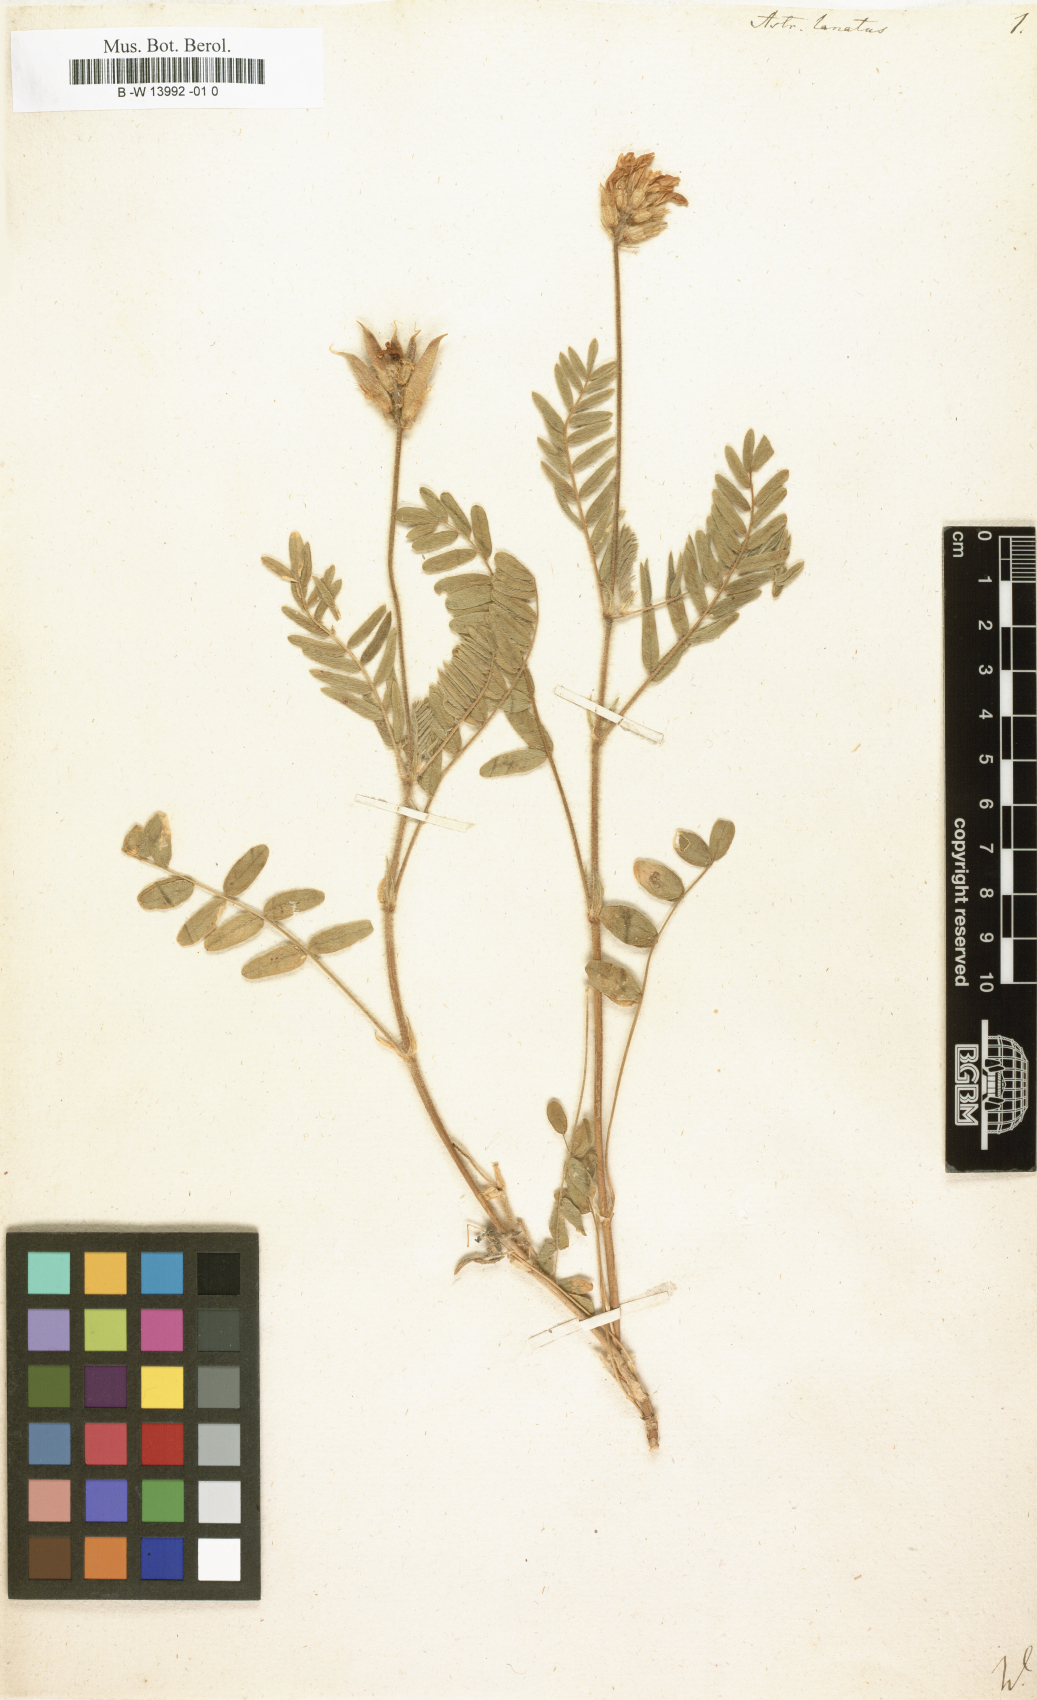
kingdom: Plantae
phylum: Tracheophyta
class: Magnoliopsida
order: Fabales
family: Fabaceae
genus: Astragalus
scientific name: Astragalus lanatus
